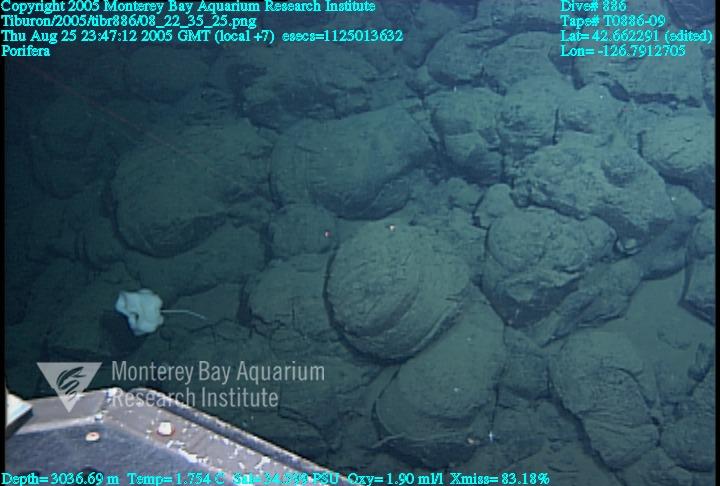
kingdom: Animalia
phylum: Porifera
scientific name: Porifera
